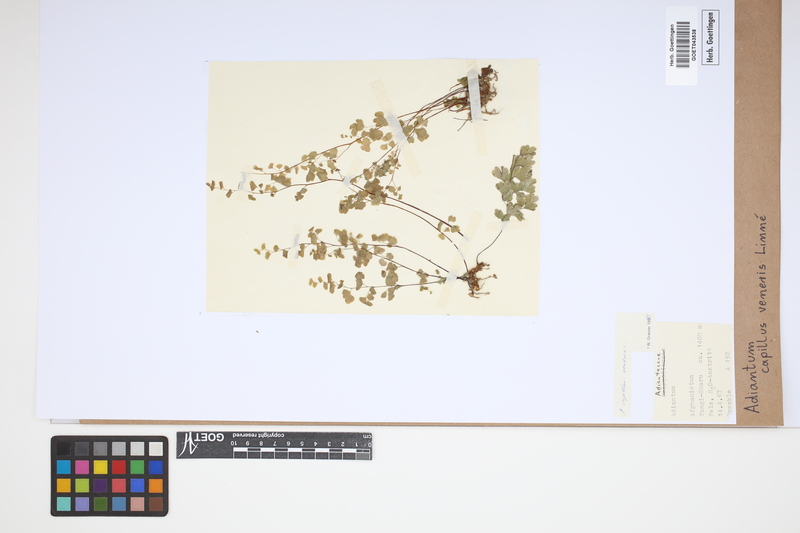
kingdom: Plantae
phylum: Tracheophyta
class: Polypodiopsida
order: Polypodiales
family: Pteridaceae
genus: Adiantum
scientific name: Adiantum capillus-veneris
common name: Maidenhair fern
